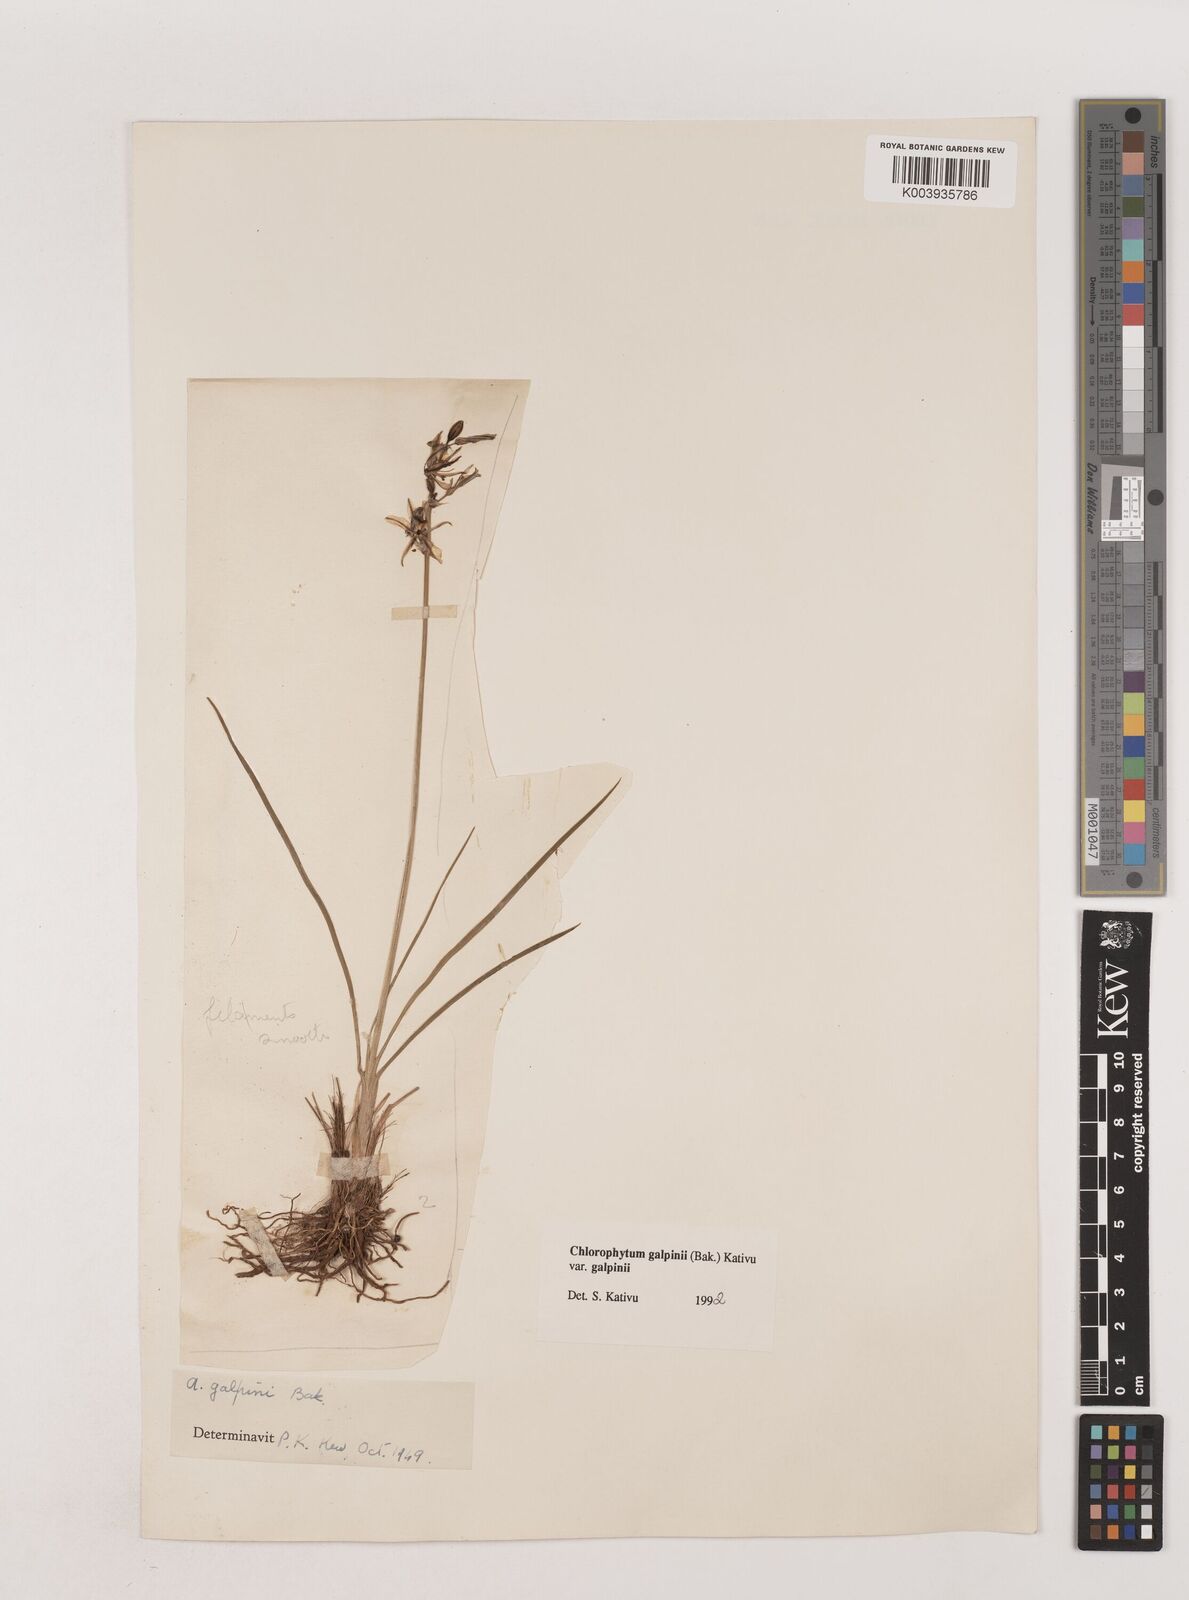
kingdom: Plantae
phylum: Tracheophyta
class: Liliopsida
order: Asparagales
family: Asparagaceae
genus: Chlorophytum
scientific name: Chlorophytum galpinii
